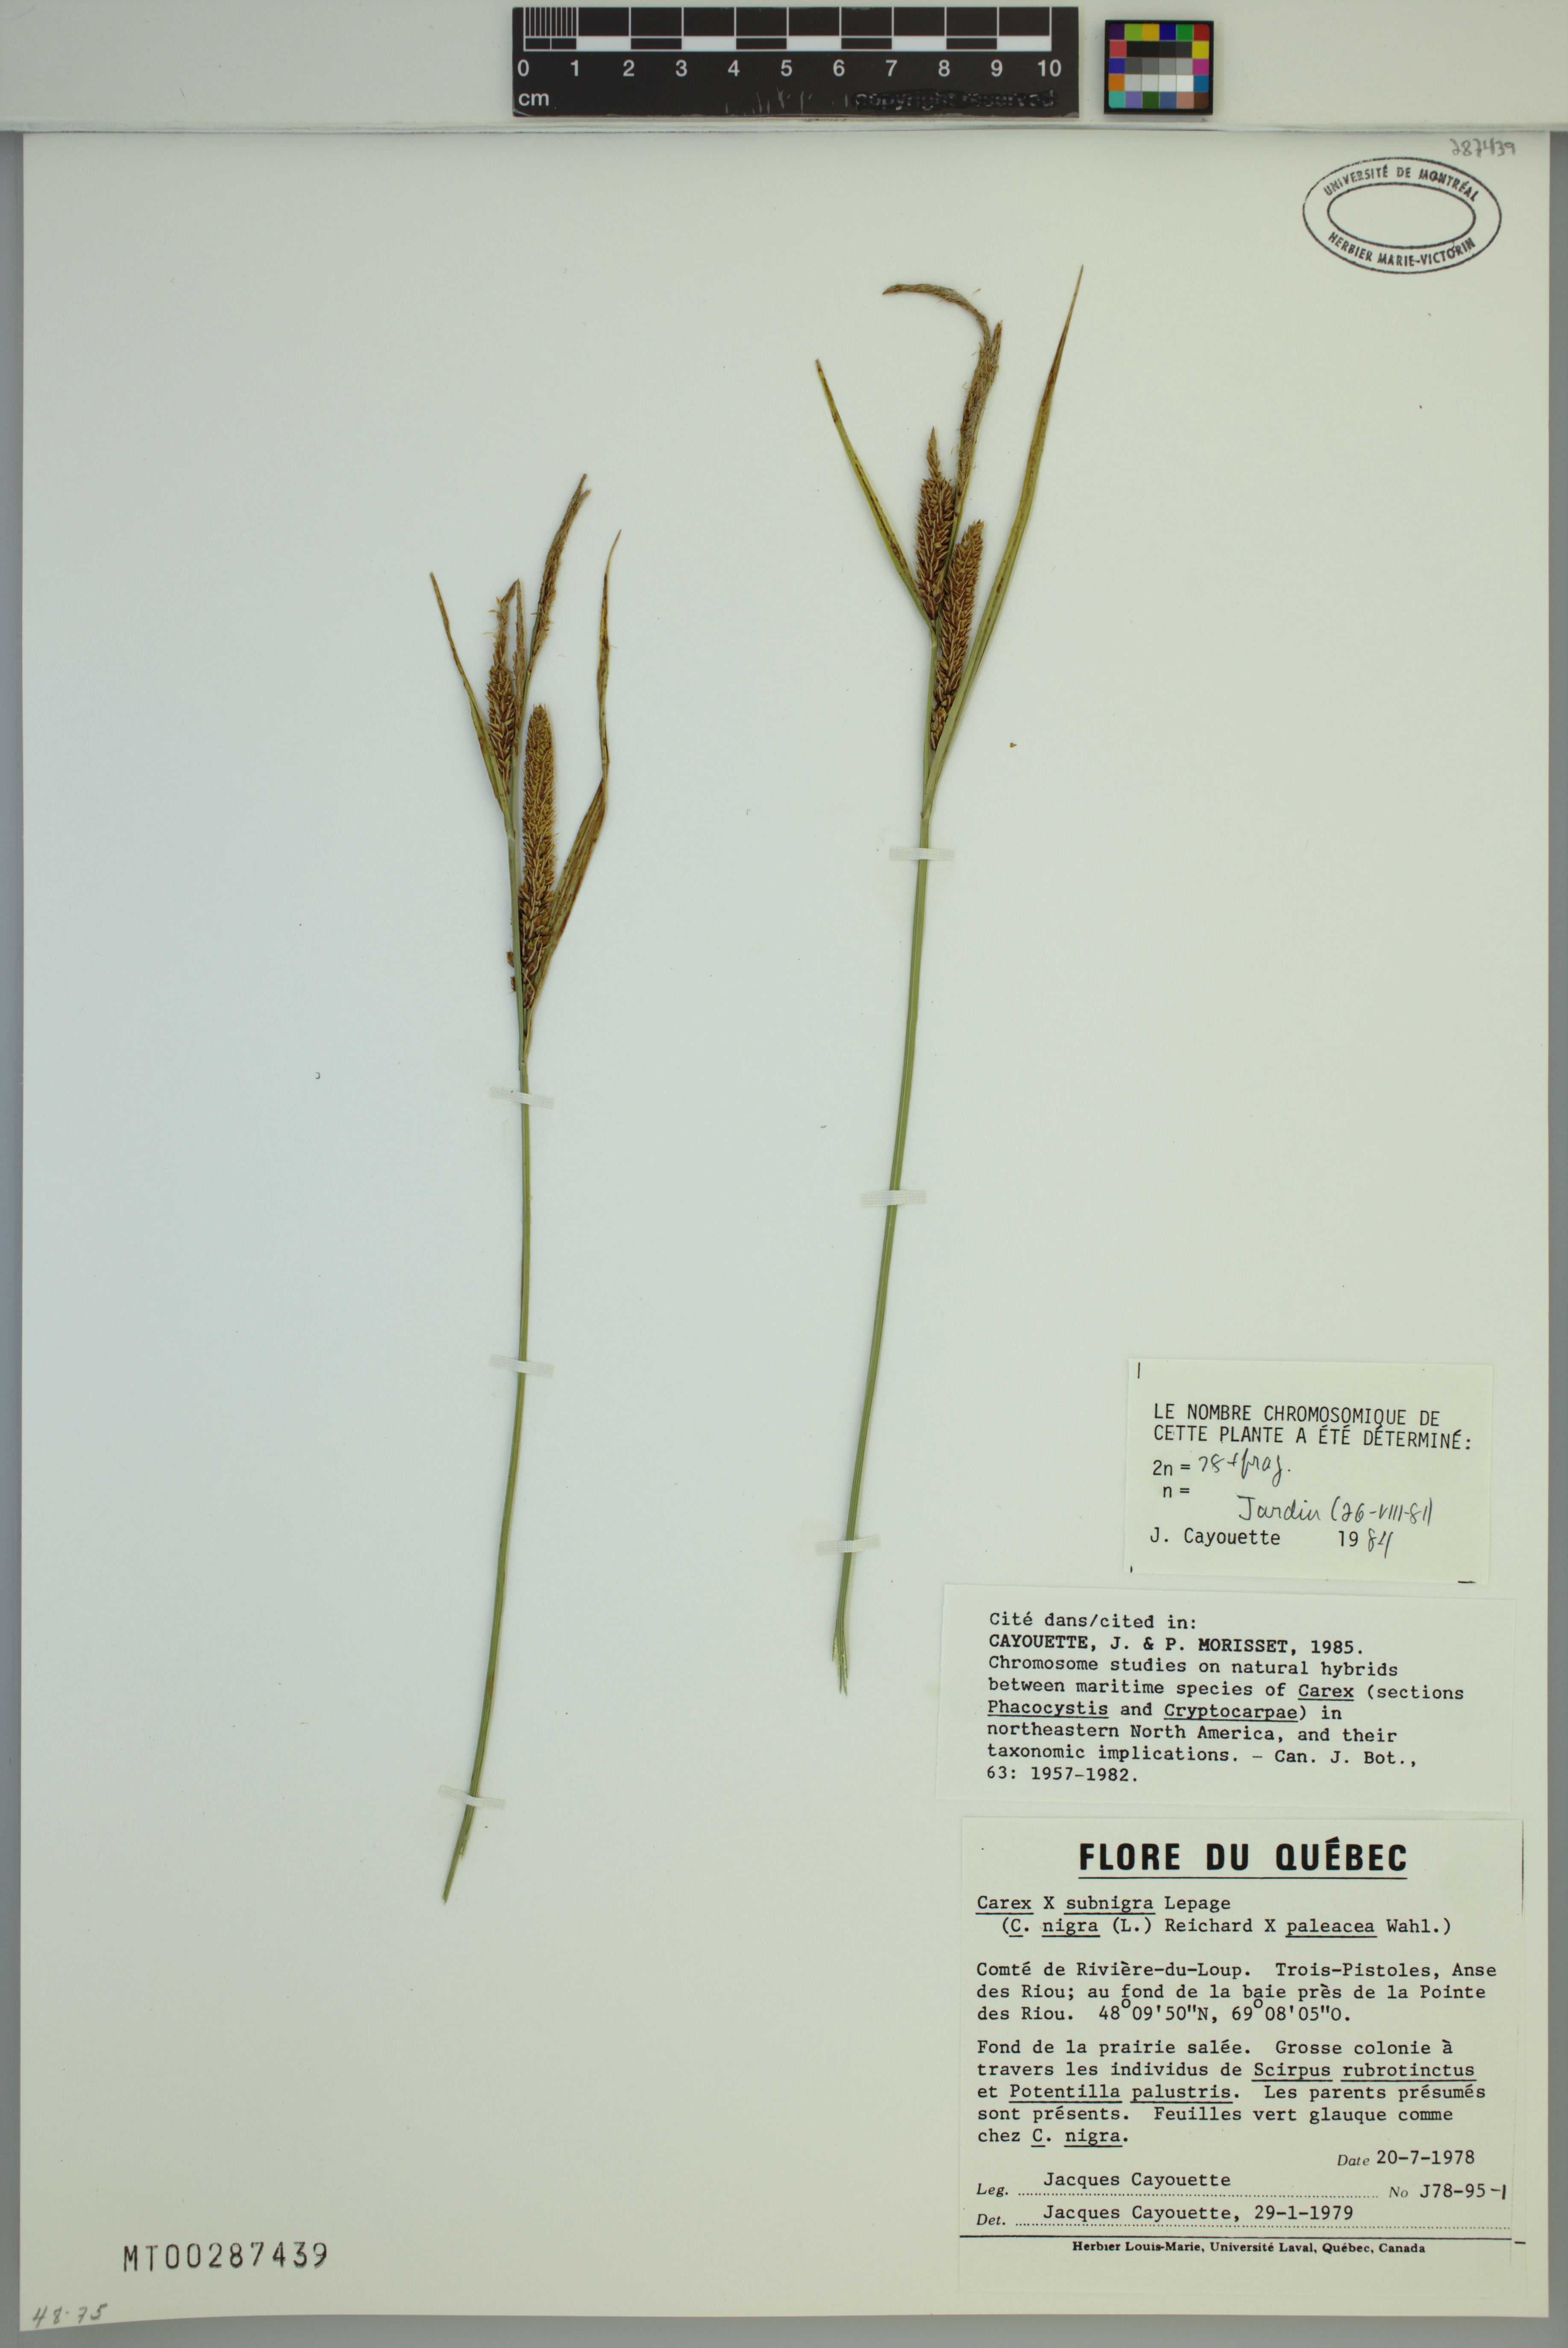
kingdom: Plantae
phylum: Tracheophyta
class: Liliopsida
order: Poales
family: Cyperaceae
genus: Carex
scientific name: Carex vacillans
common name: Sedge
